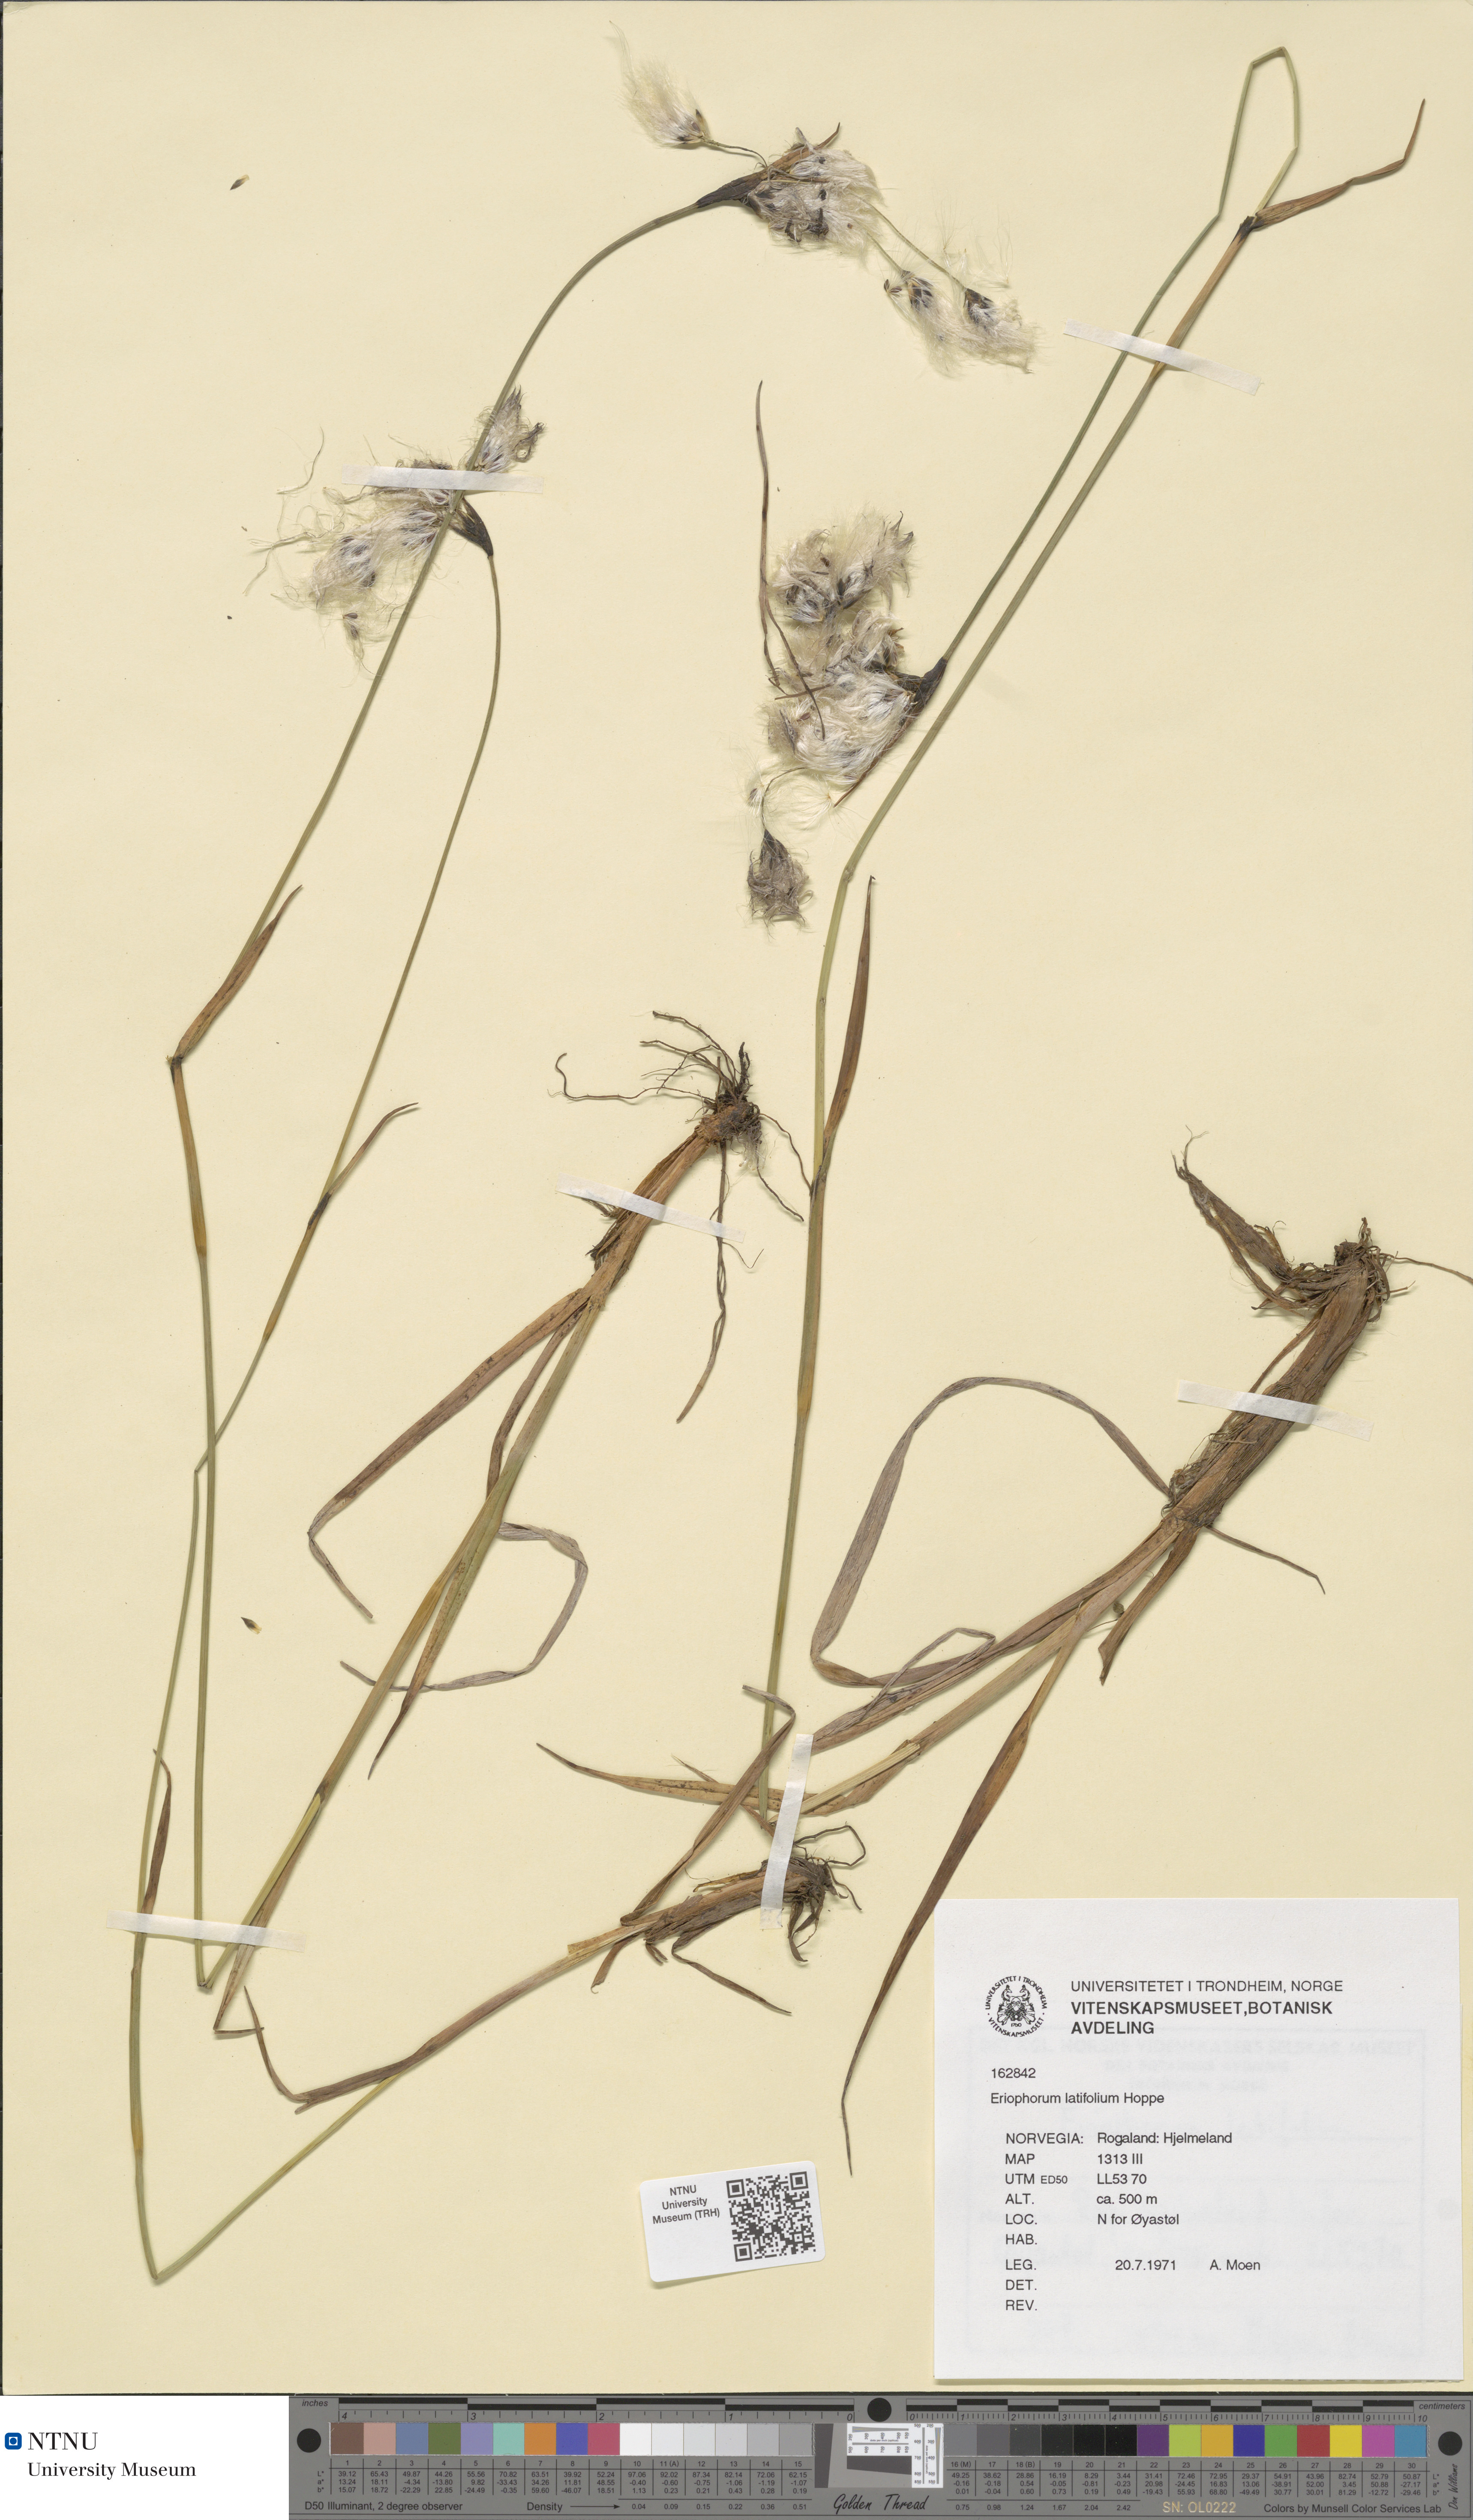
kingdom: Plantae
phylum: Tracheophyta
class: Liliopsida
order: Poales
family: Cyperaceae
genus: Eriophorum
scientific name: Eriophorum latifolium
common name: Broad-leaved cottongrass
